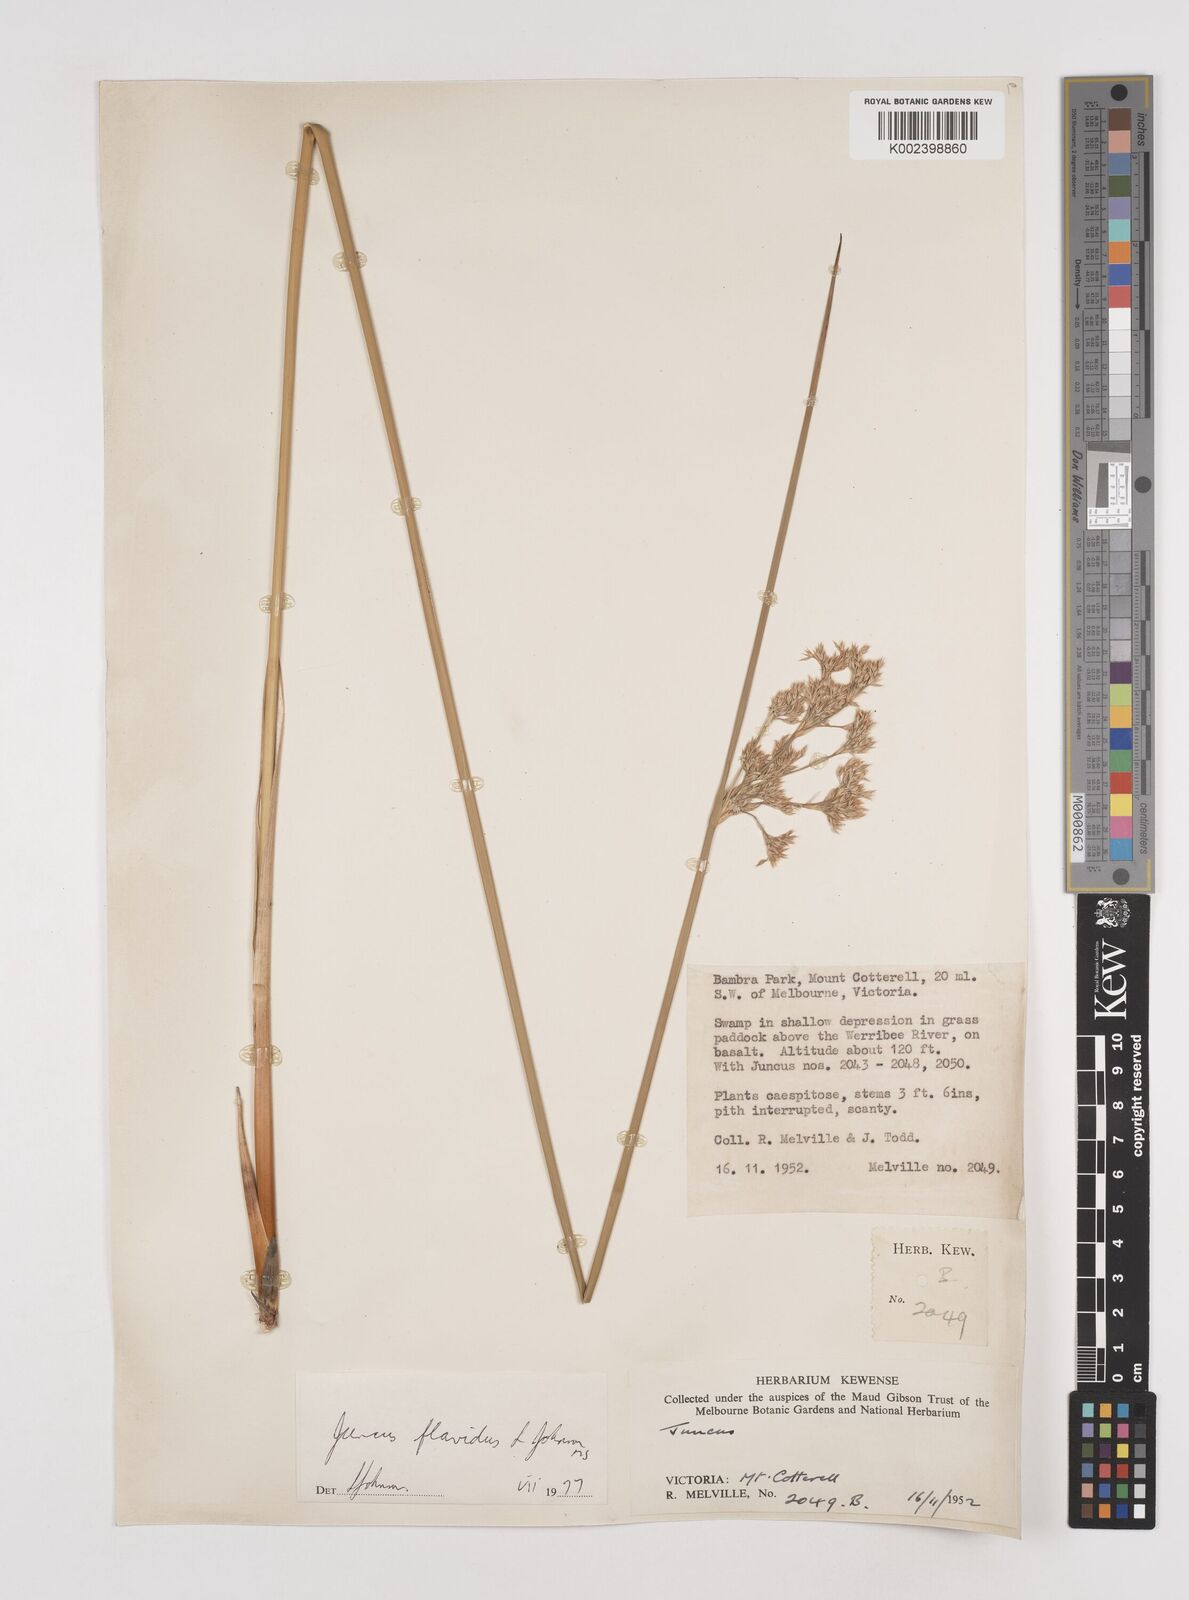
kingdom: Plantae
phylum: Tracheophyta
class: Liliopsida
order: Poales
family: Juncaceae
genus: Juncus
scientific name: Juncus flavidus
